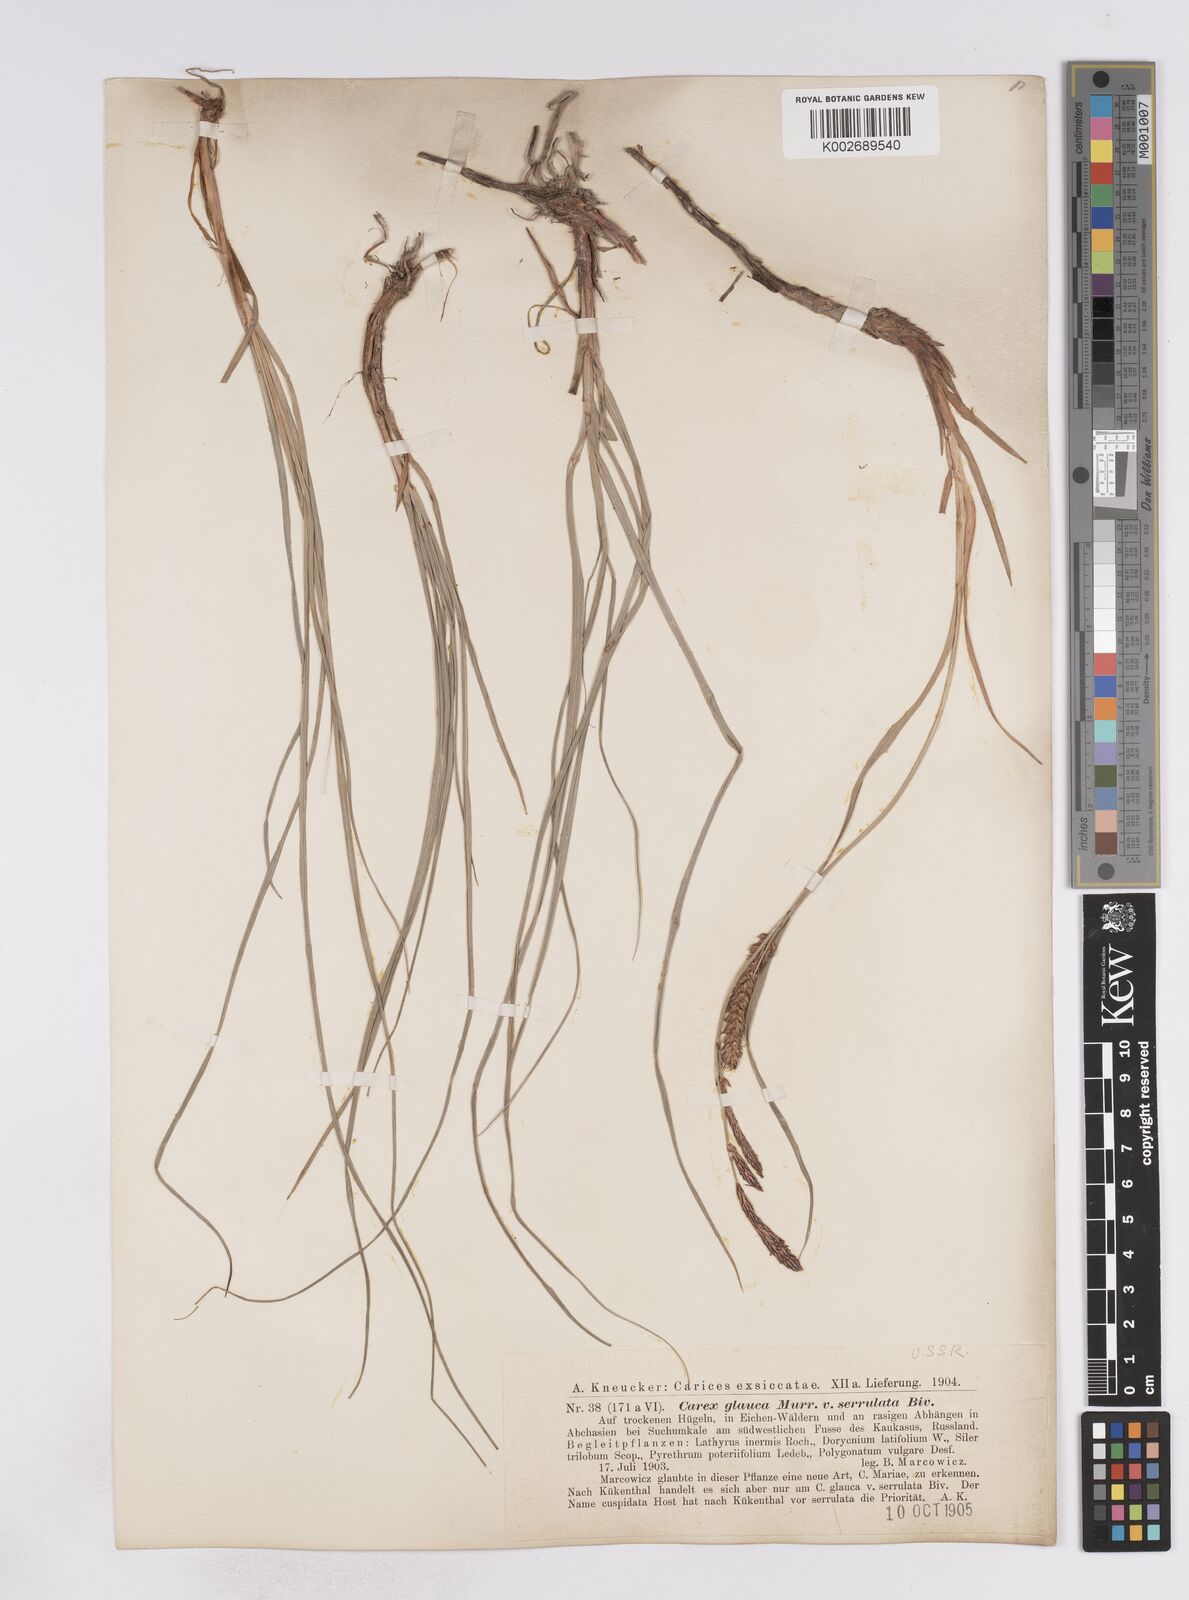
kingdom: Plantae
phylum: Tracheophyta
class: Liliopsida
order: Poales
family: Cyperaceae
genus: Carex
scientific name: Carex flacca
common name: Glaucous sedge
